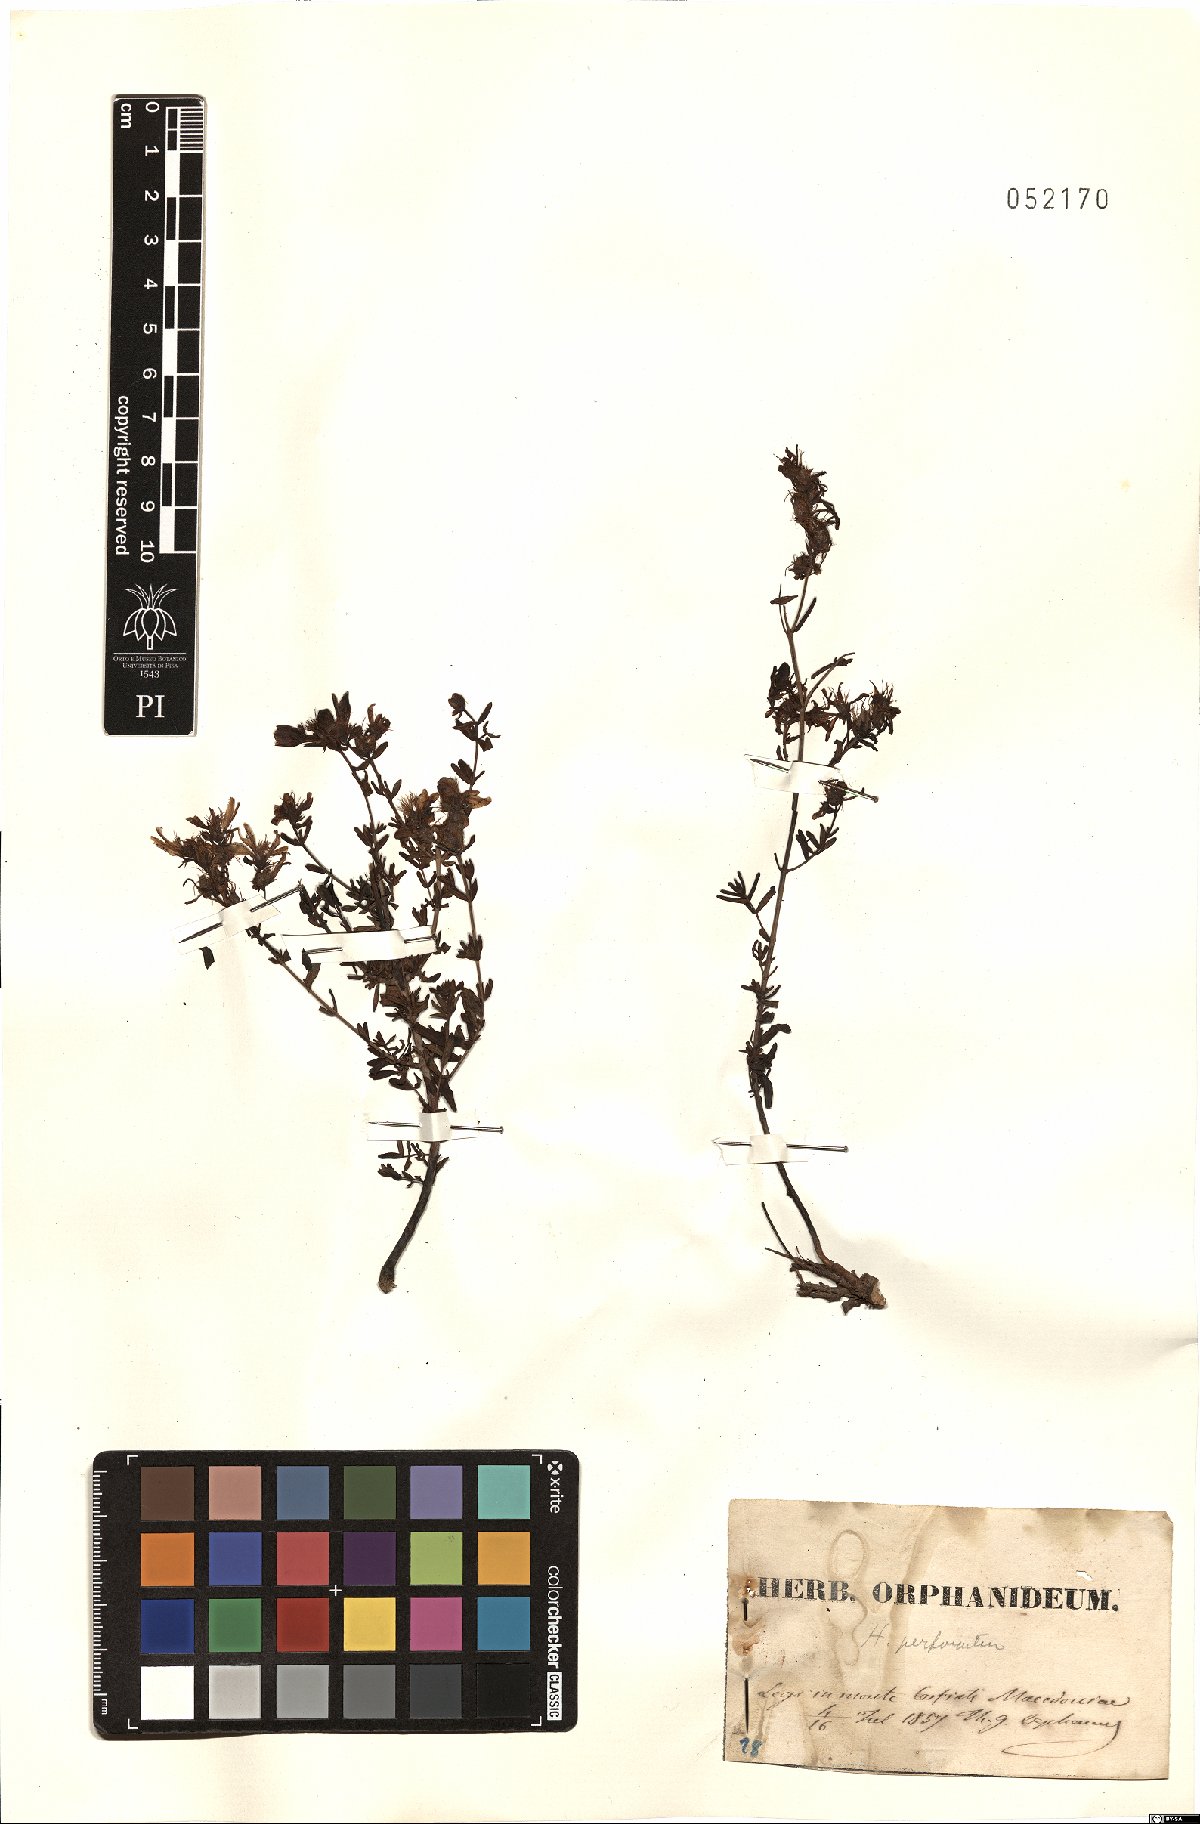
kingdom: Plantae
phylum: Tracheophyta
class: Magnoliopsida
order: Malpighiales
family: Hypericaceae
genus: Hypericum
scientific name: Hypericum perforatum
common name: Common st. johnswort
